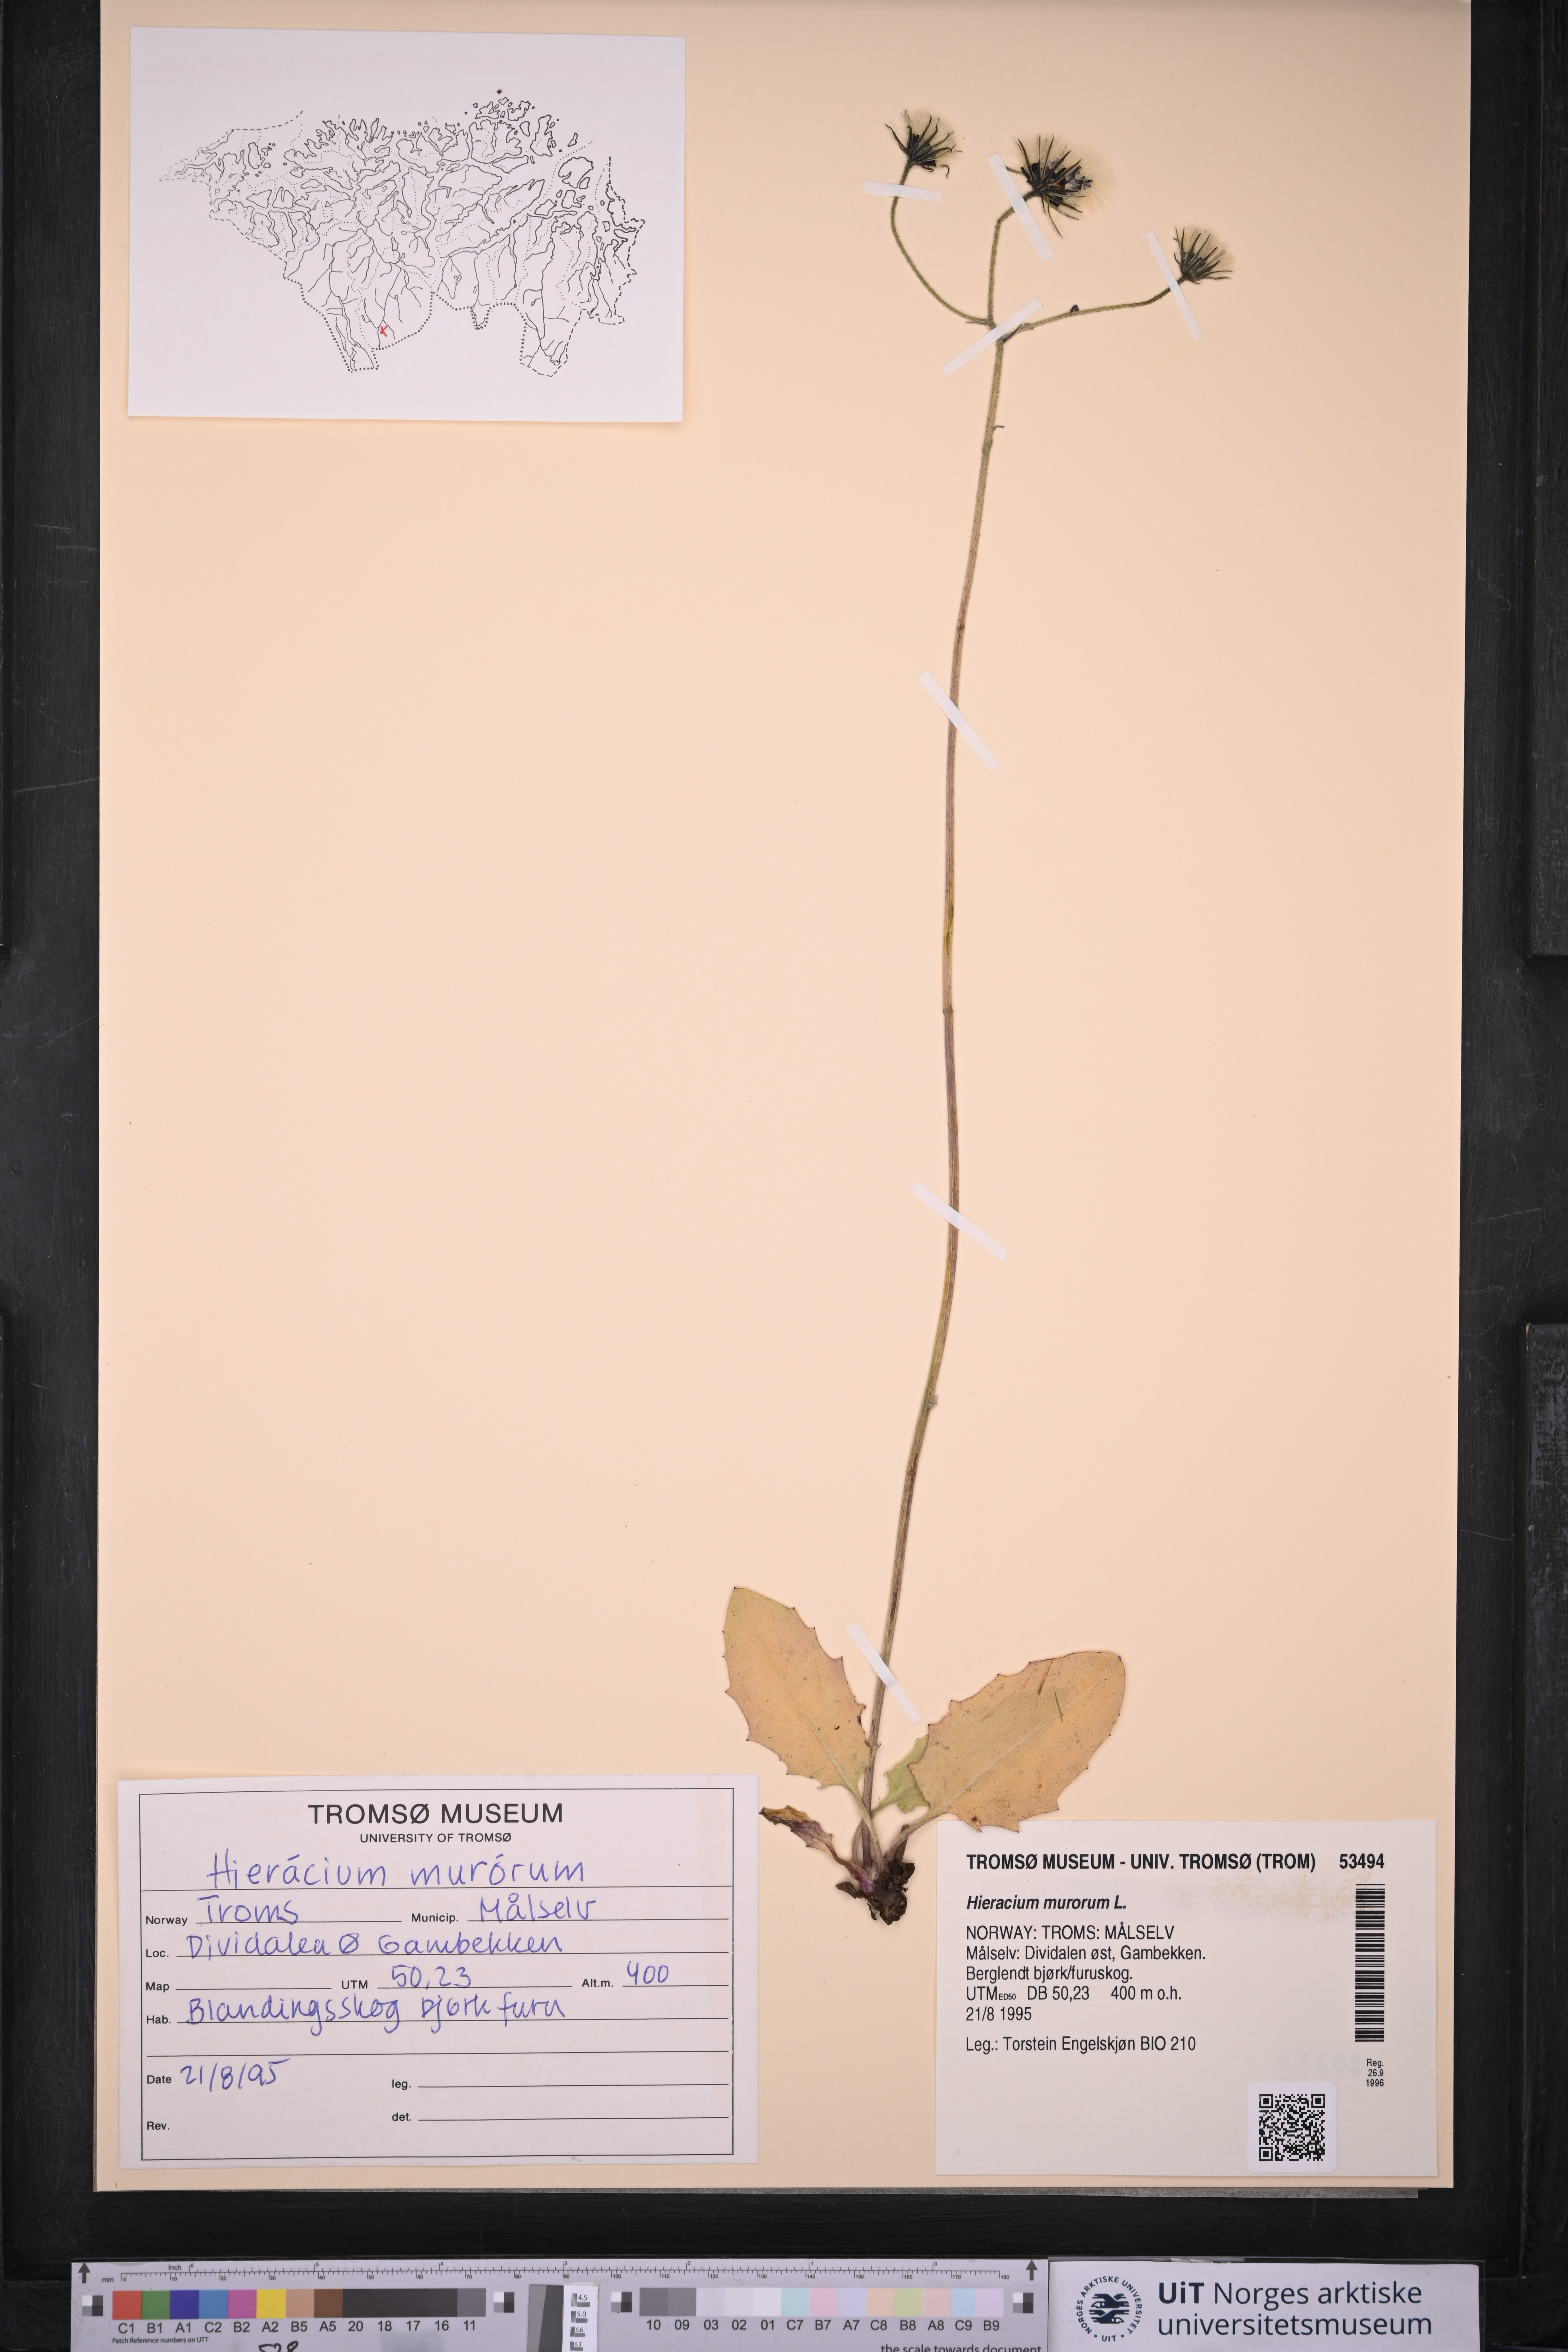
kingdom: Plantae
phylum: Tracheophyta
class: Magnoliopsida
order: Asterales
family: Asteraceae
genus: Hieracium
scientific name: Hieracium murorum
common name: Wall hawkweed
